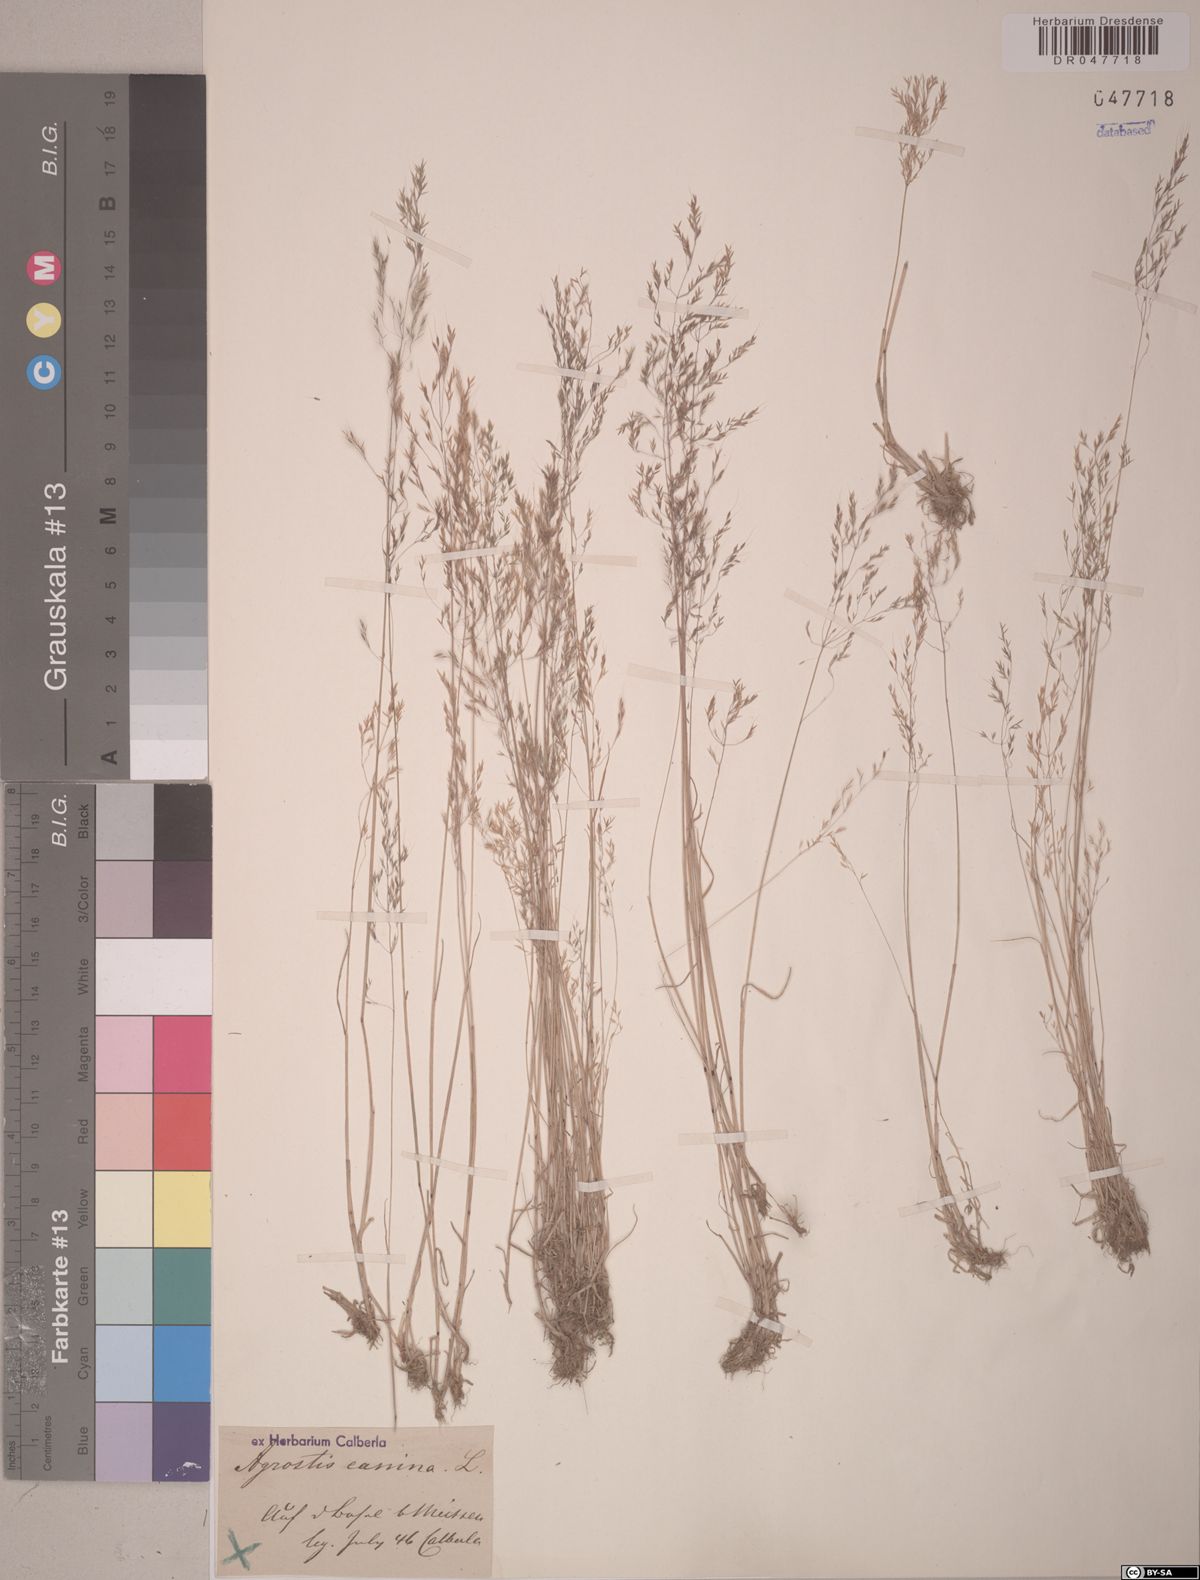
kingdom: Plantae
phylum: Tracheophyta
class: Liliopsida
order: Poales
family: Poaceae
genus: Agrostis
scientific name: Agrostis canina
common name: Velvet bent
